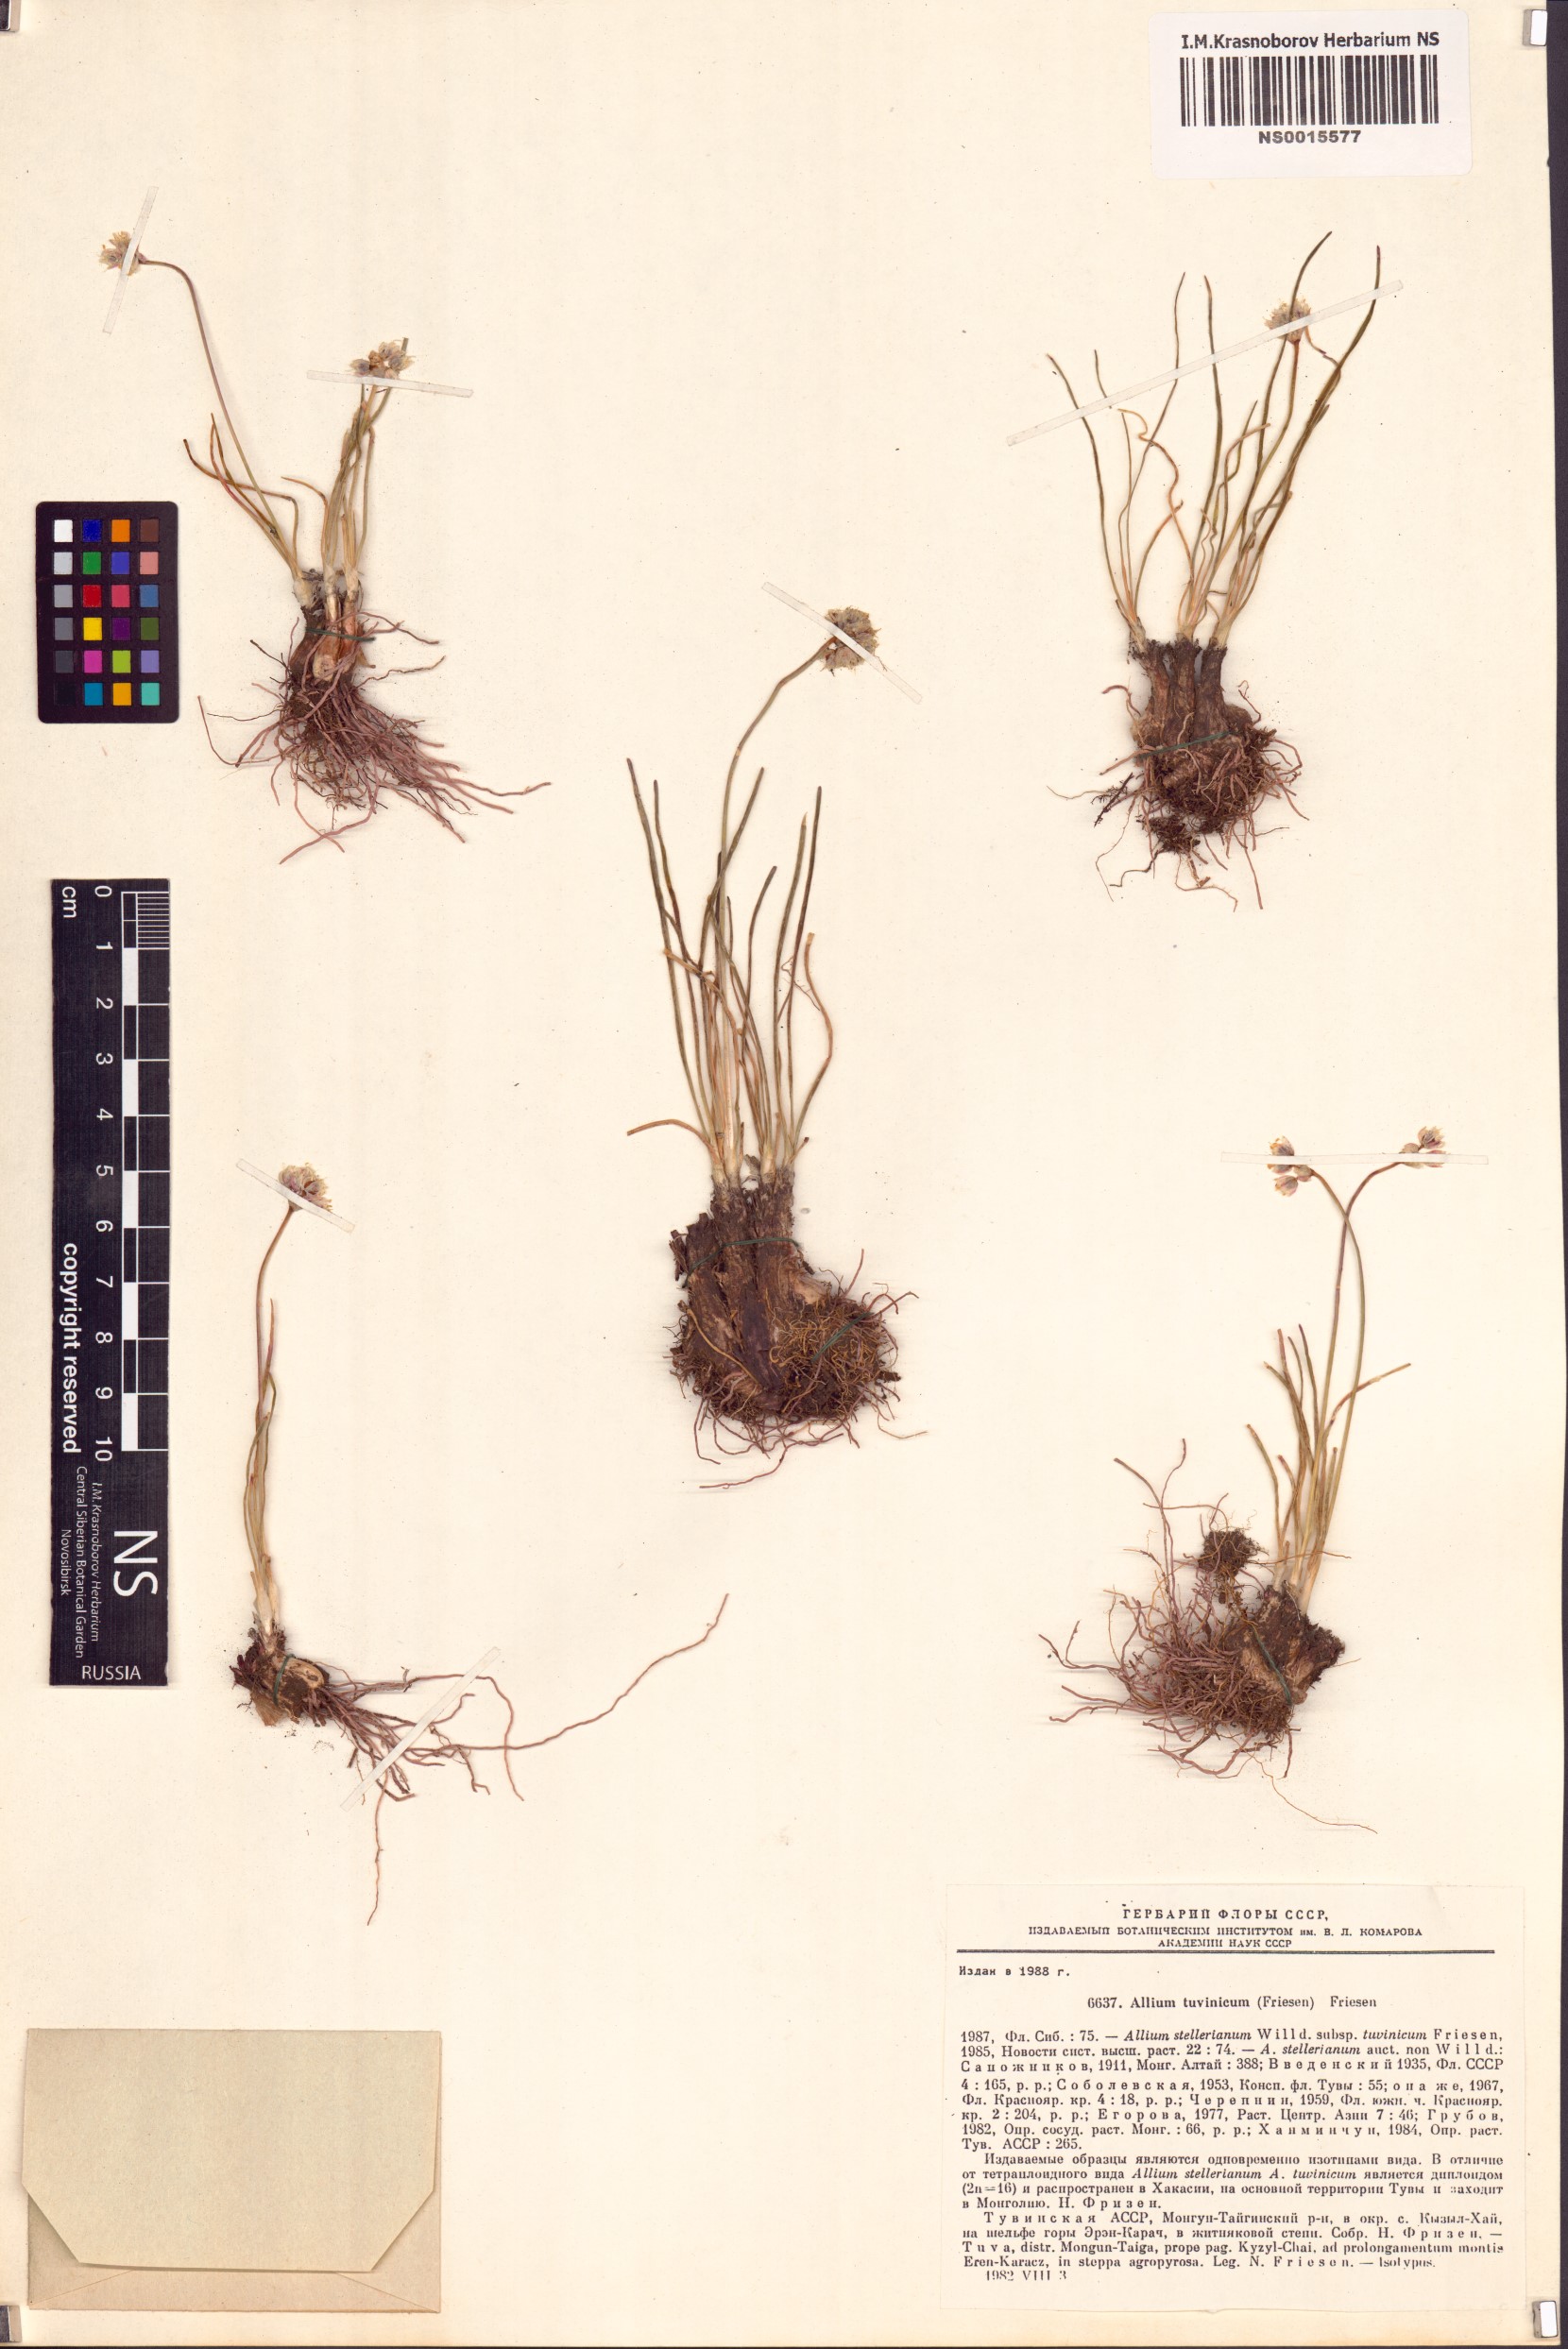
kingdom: Plantae
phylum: Tracheophyta
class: Liliopsida
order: Asparagales
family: Amaryllidaceae
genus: Allium
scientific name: Allium tuvinicum
